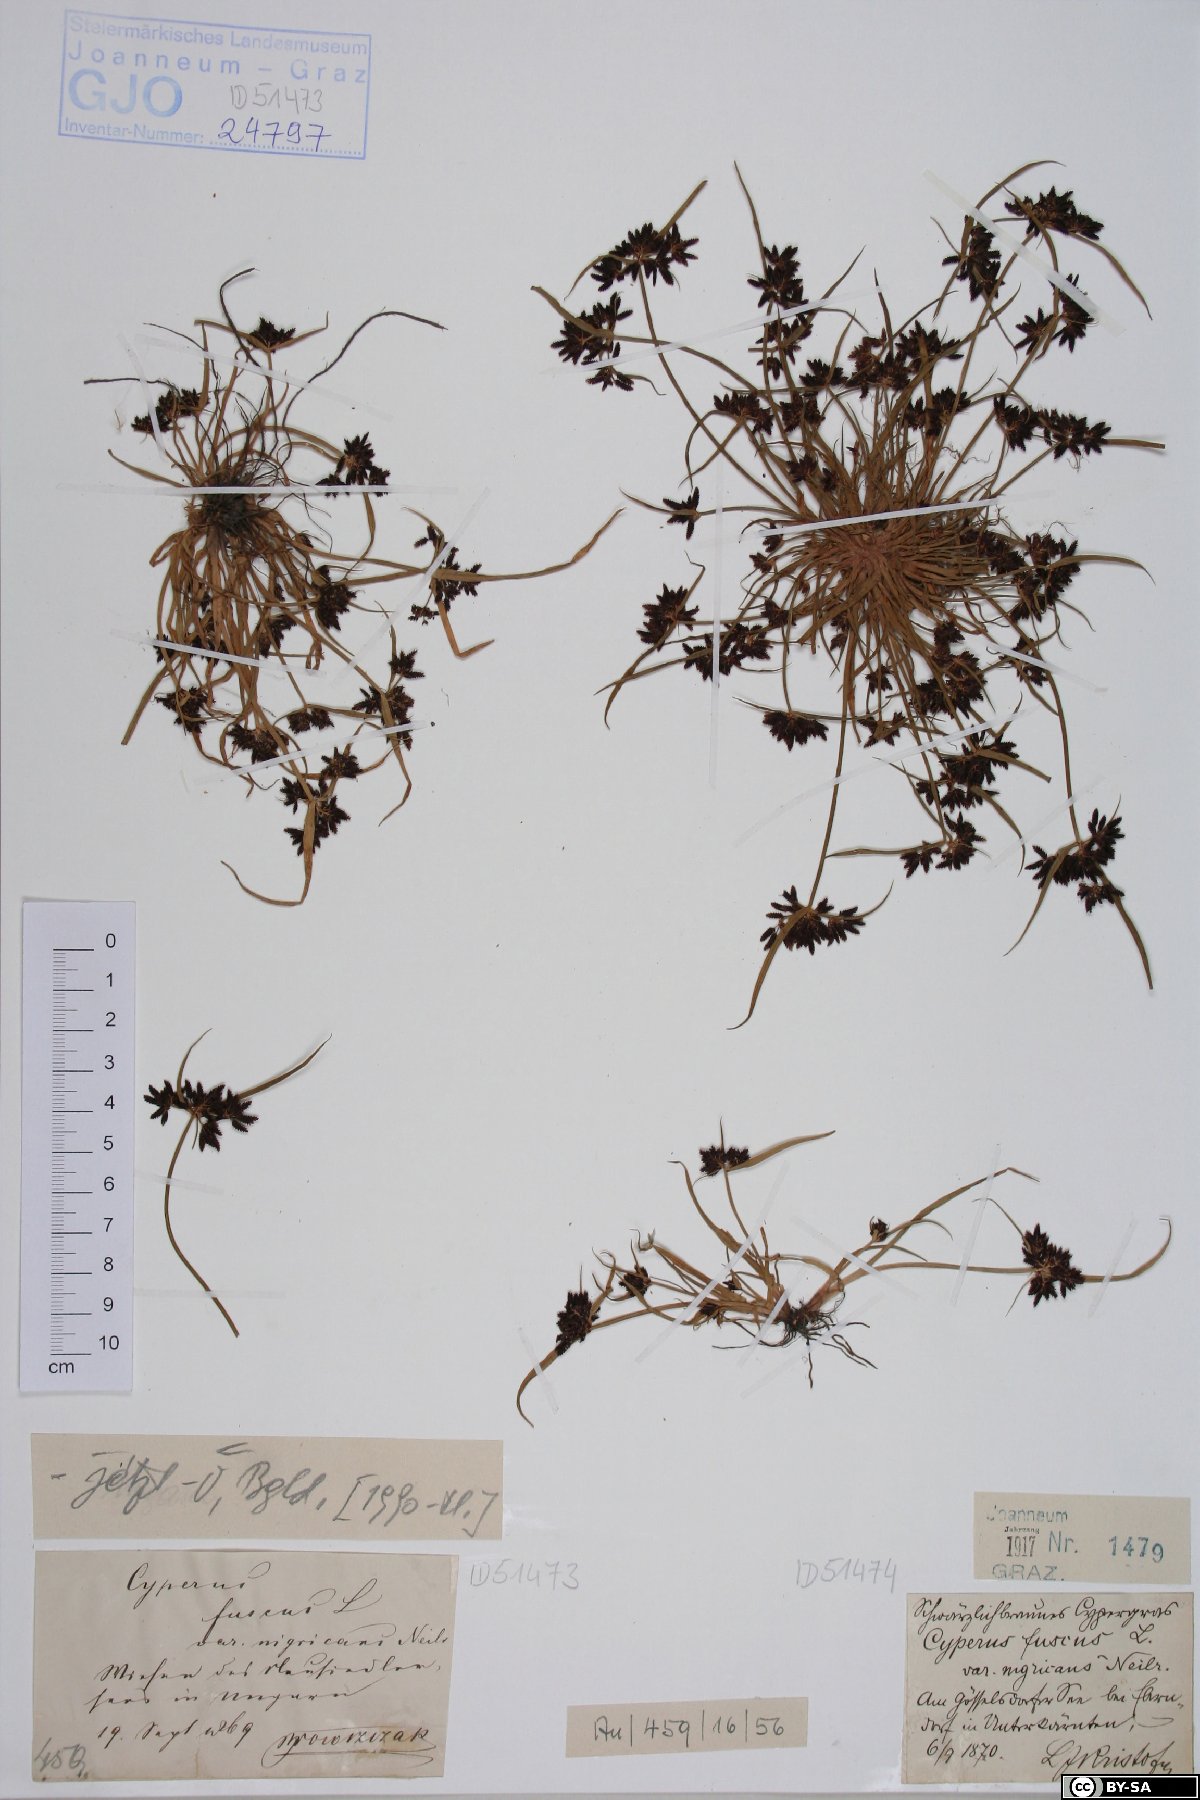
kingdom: Plantae
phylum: Bryophyta
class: Bryopsida
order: Pottiales
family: Pottiaceae
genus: Tortula
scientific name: Tortula inermis
